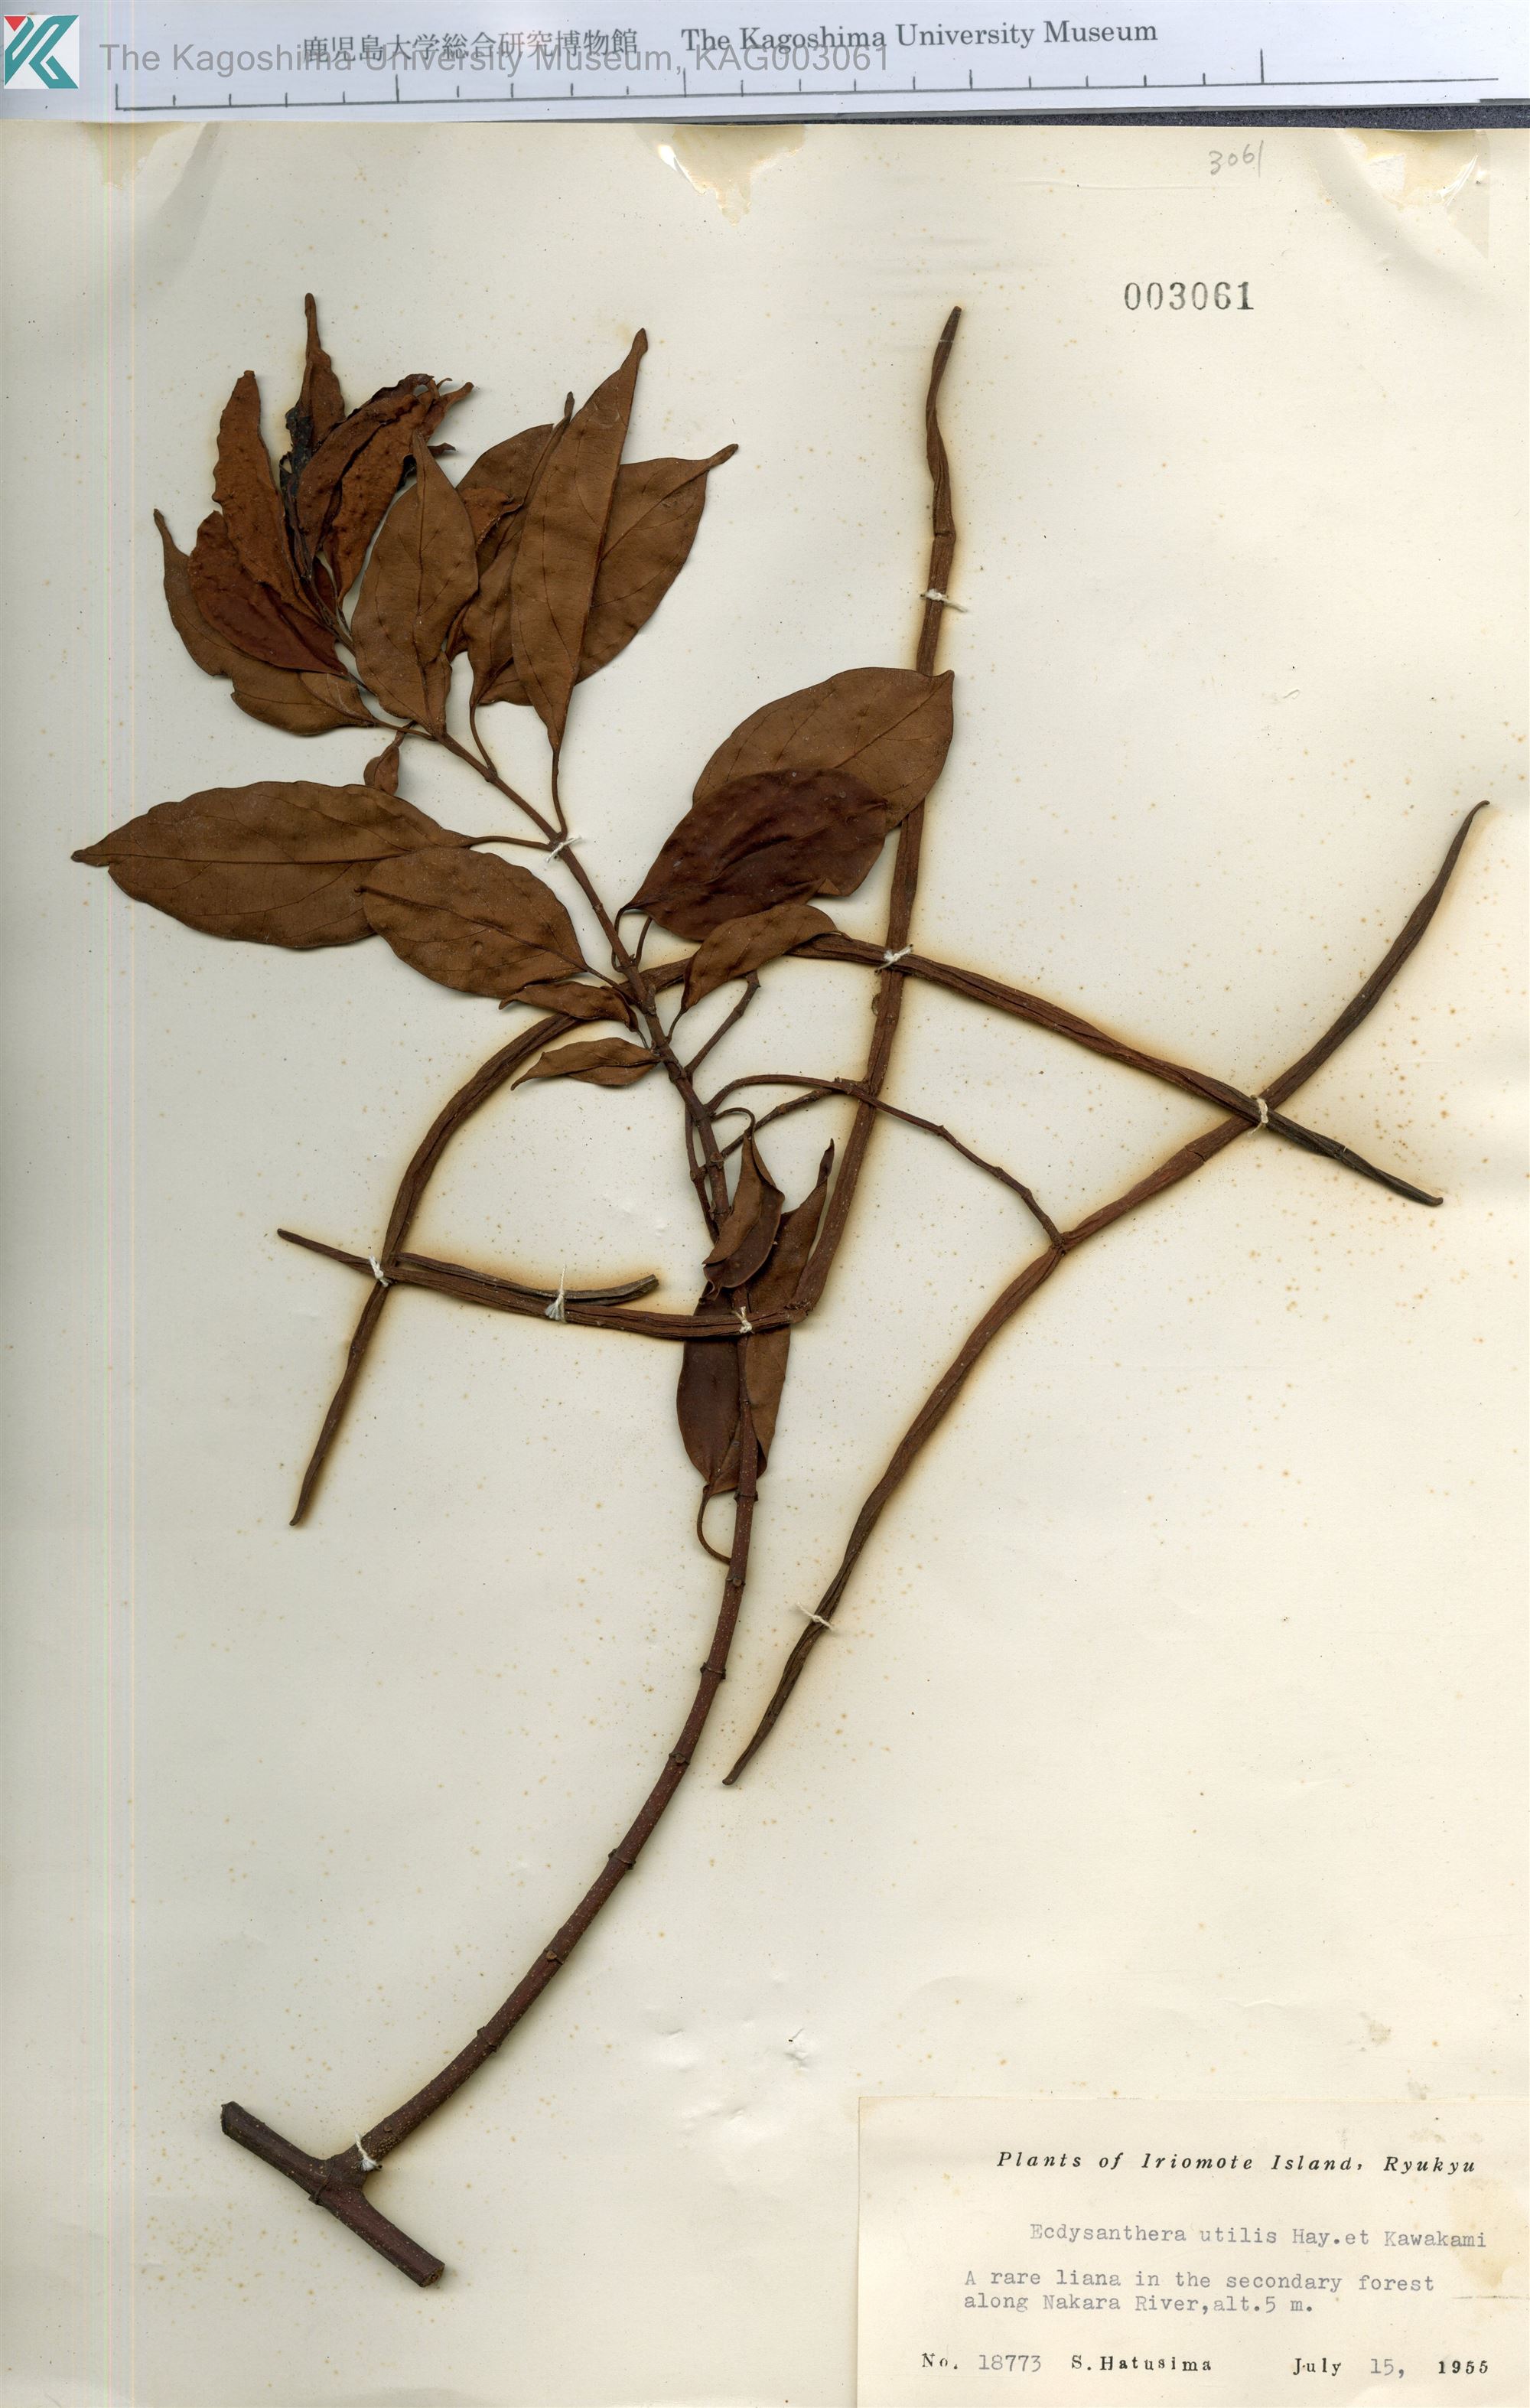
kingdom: Plantae
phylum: Tracheophyta
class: Magnoliopsida
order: Gentianales
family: Apocynaceae
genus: Urceola
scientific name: Urceola micrantha
